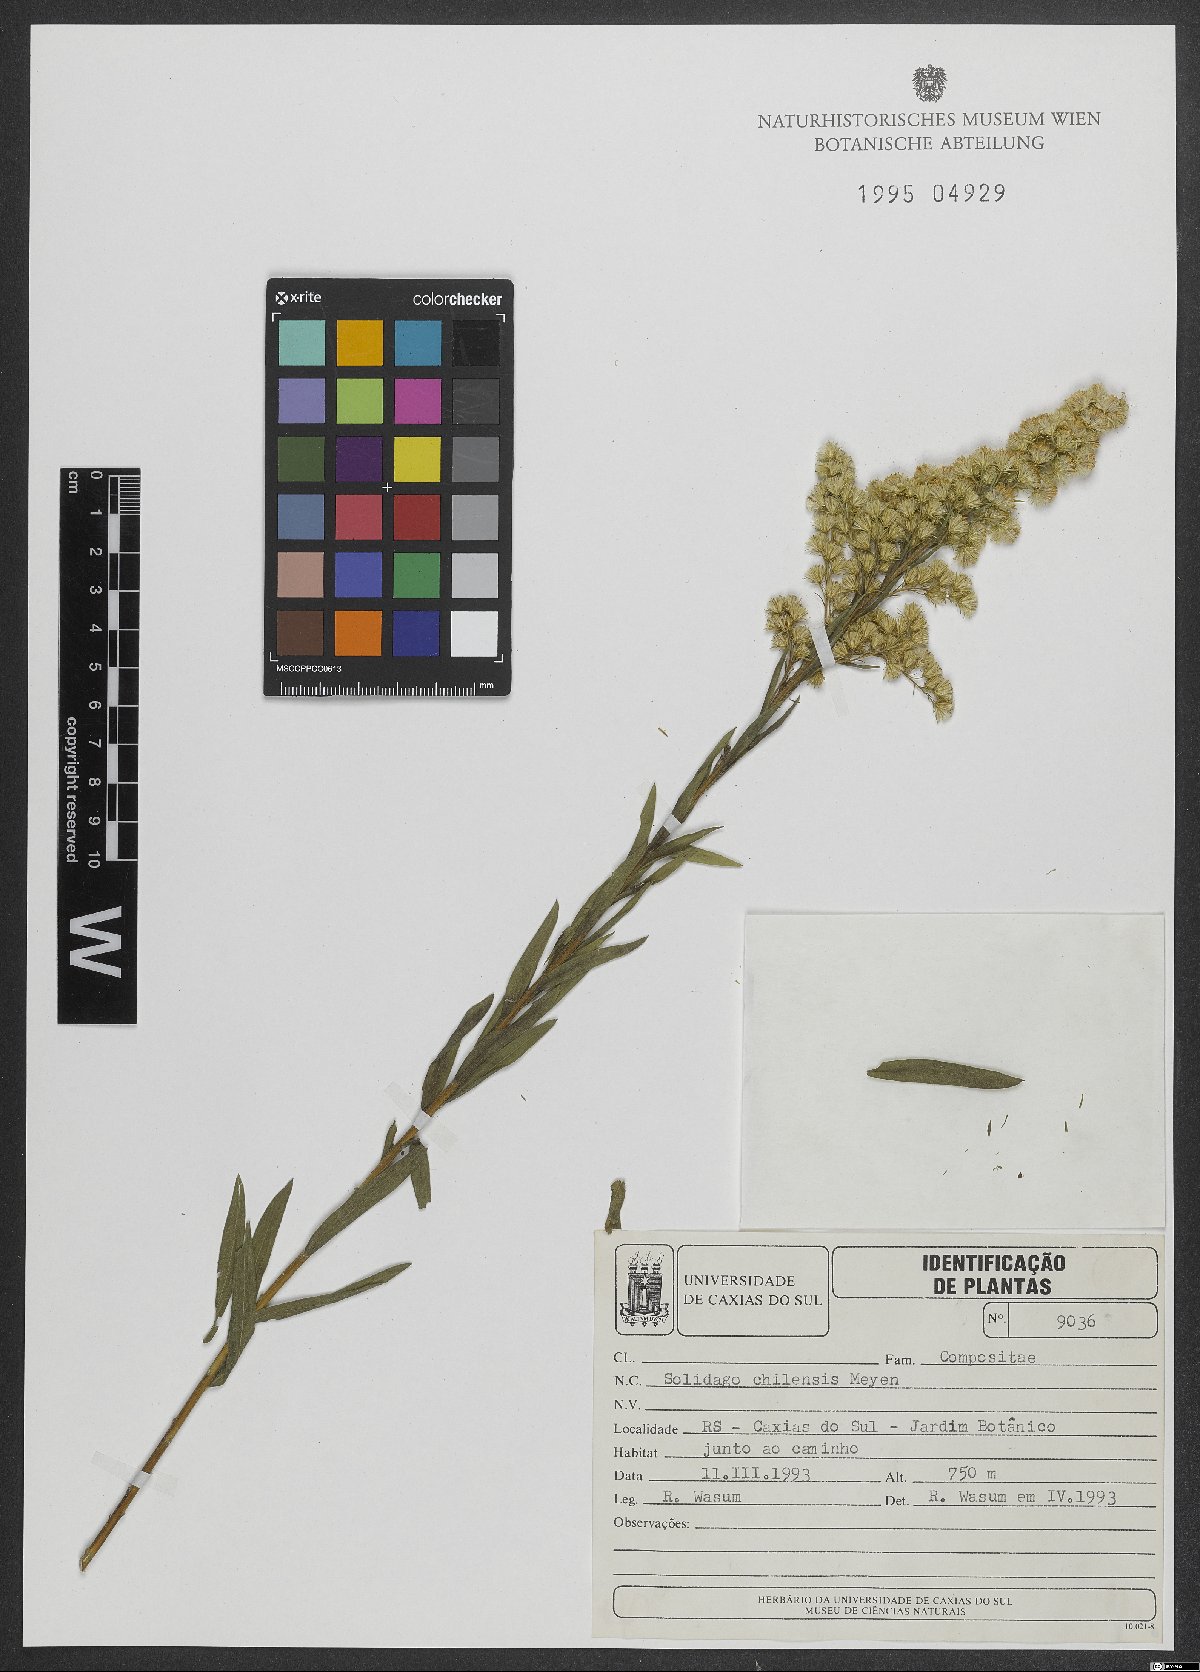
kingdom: Plantae
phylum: Tracheophyta
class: Magnoliopsida
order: Asterales
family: Asteraceae
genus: Solidago
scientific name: Solidago chilensis
